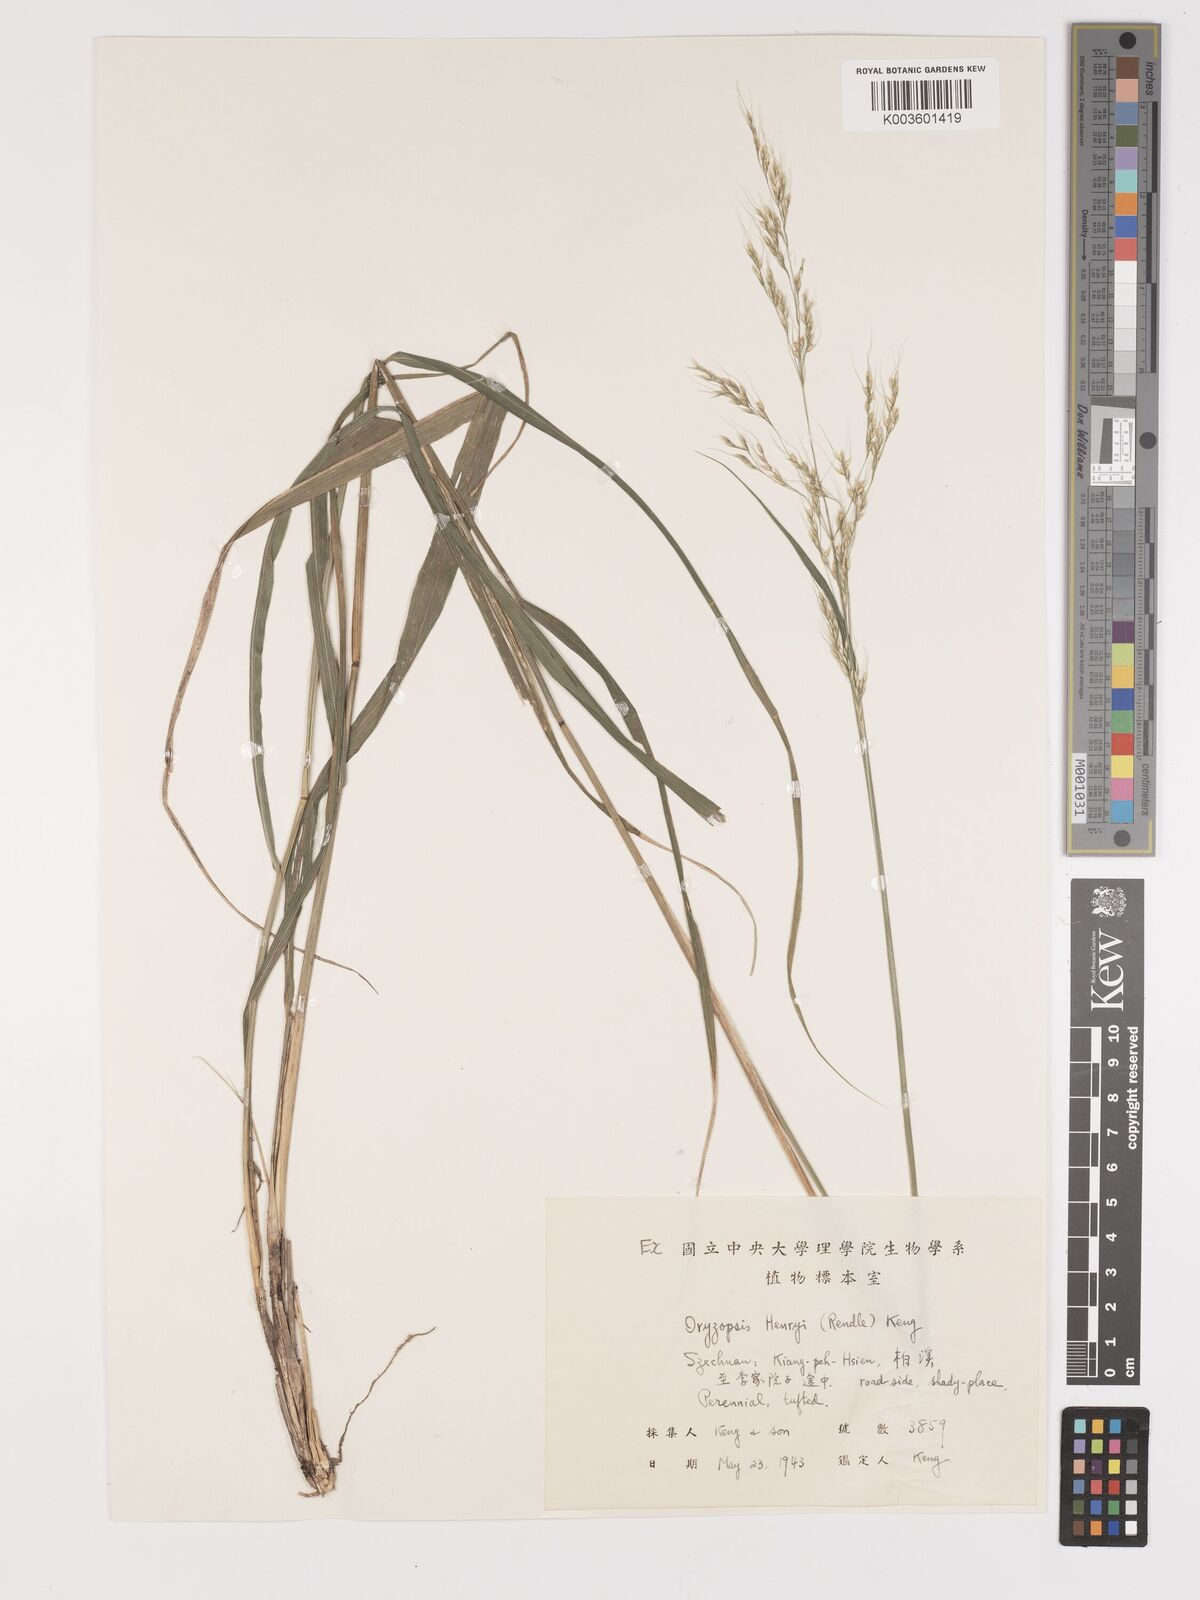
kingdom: Plantae
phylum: Tracheophyta
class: Liliopsida
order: Poales
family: Poaceae
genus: Stipa
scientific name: Stipa henryi
